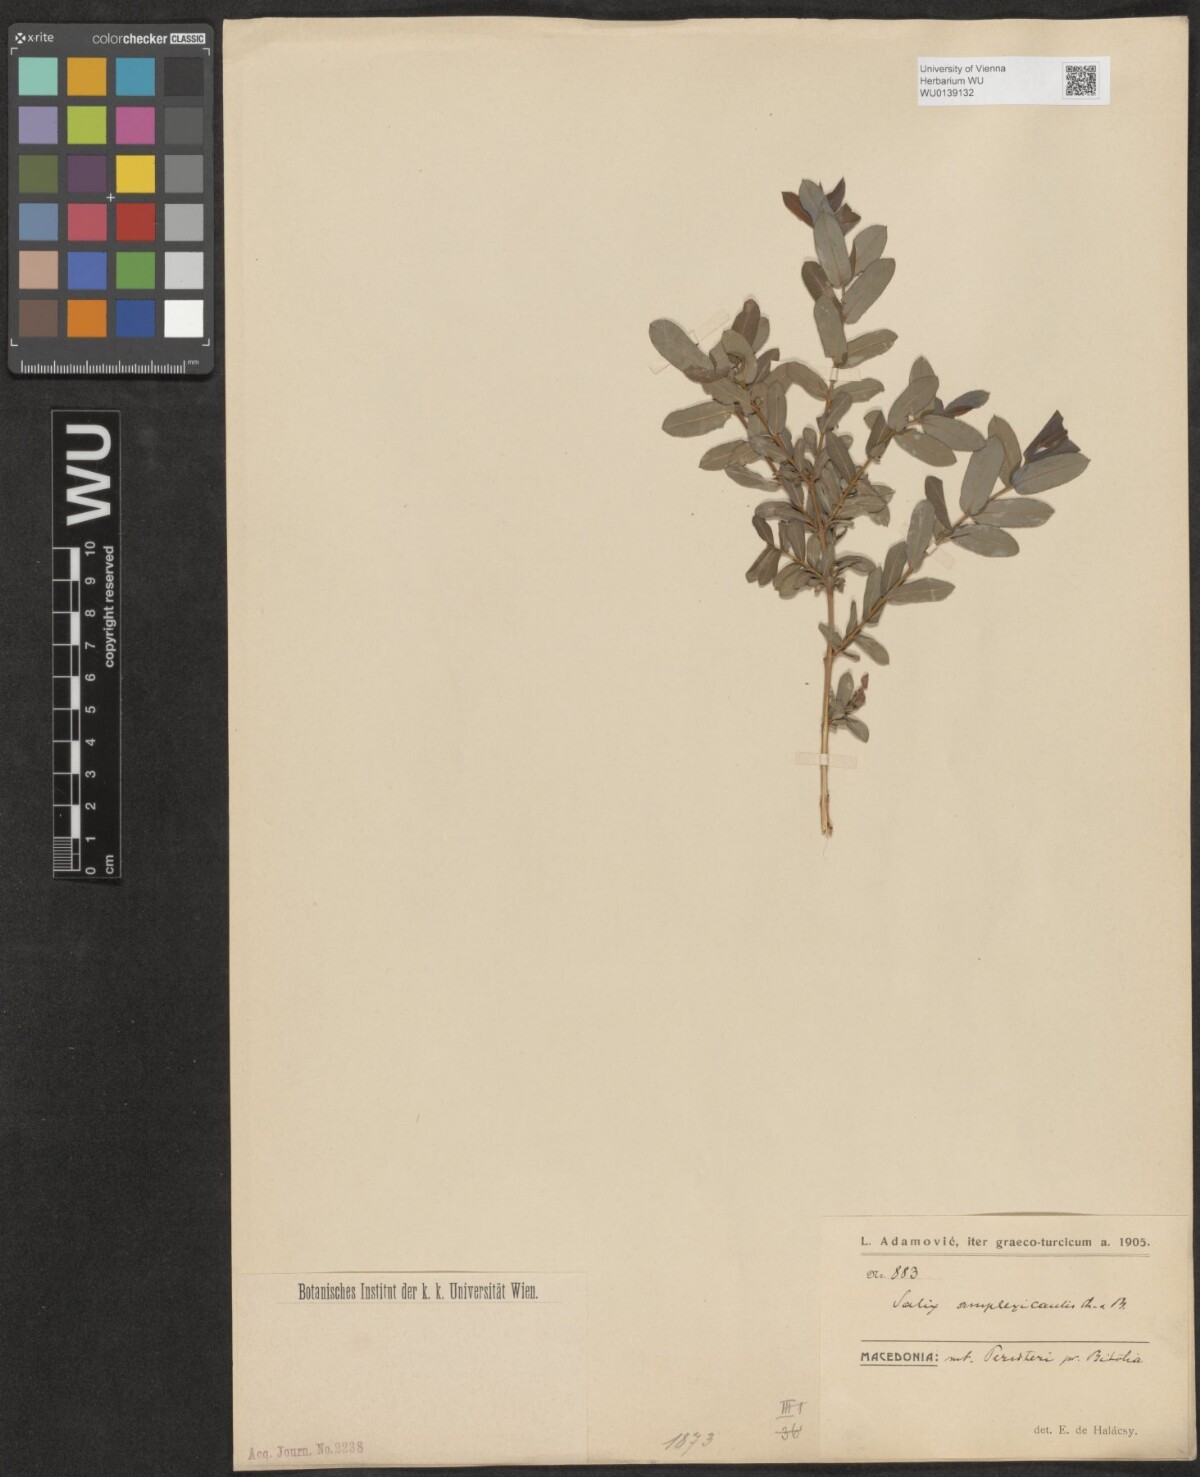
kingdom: Plantae
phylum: Tracheophyta
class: Magnoliopsida
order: Malpighiales
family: Salicaceae
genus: Salix
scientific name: Salix amplexicaulis
